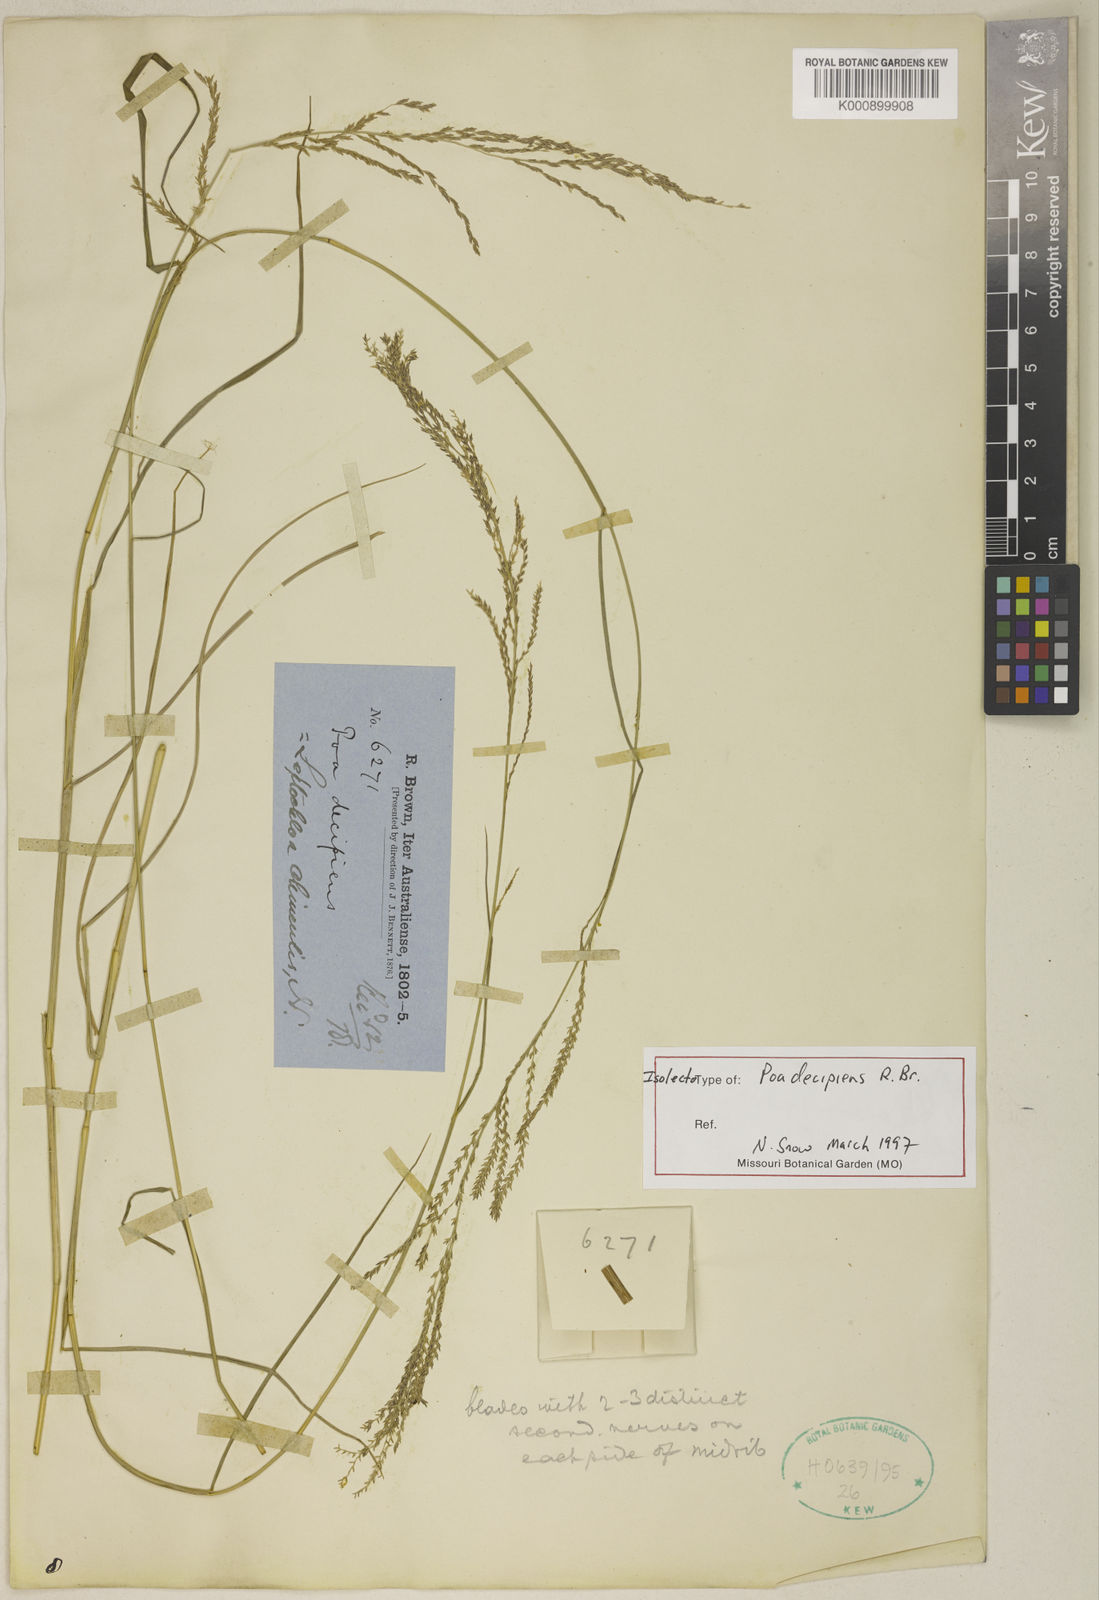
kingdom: Plantae
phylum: Tracheophyta
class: Liliopsida
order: Poales
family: Poaceae
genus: Leptochloa
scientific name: Leptochloa decipiens
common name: Australian sprangletop
